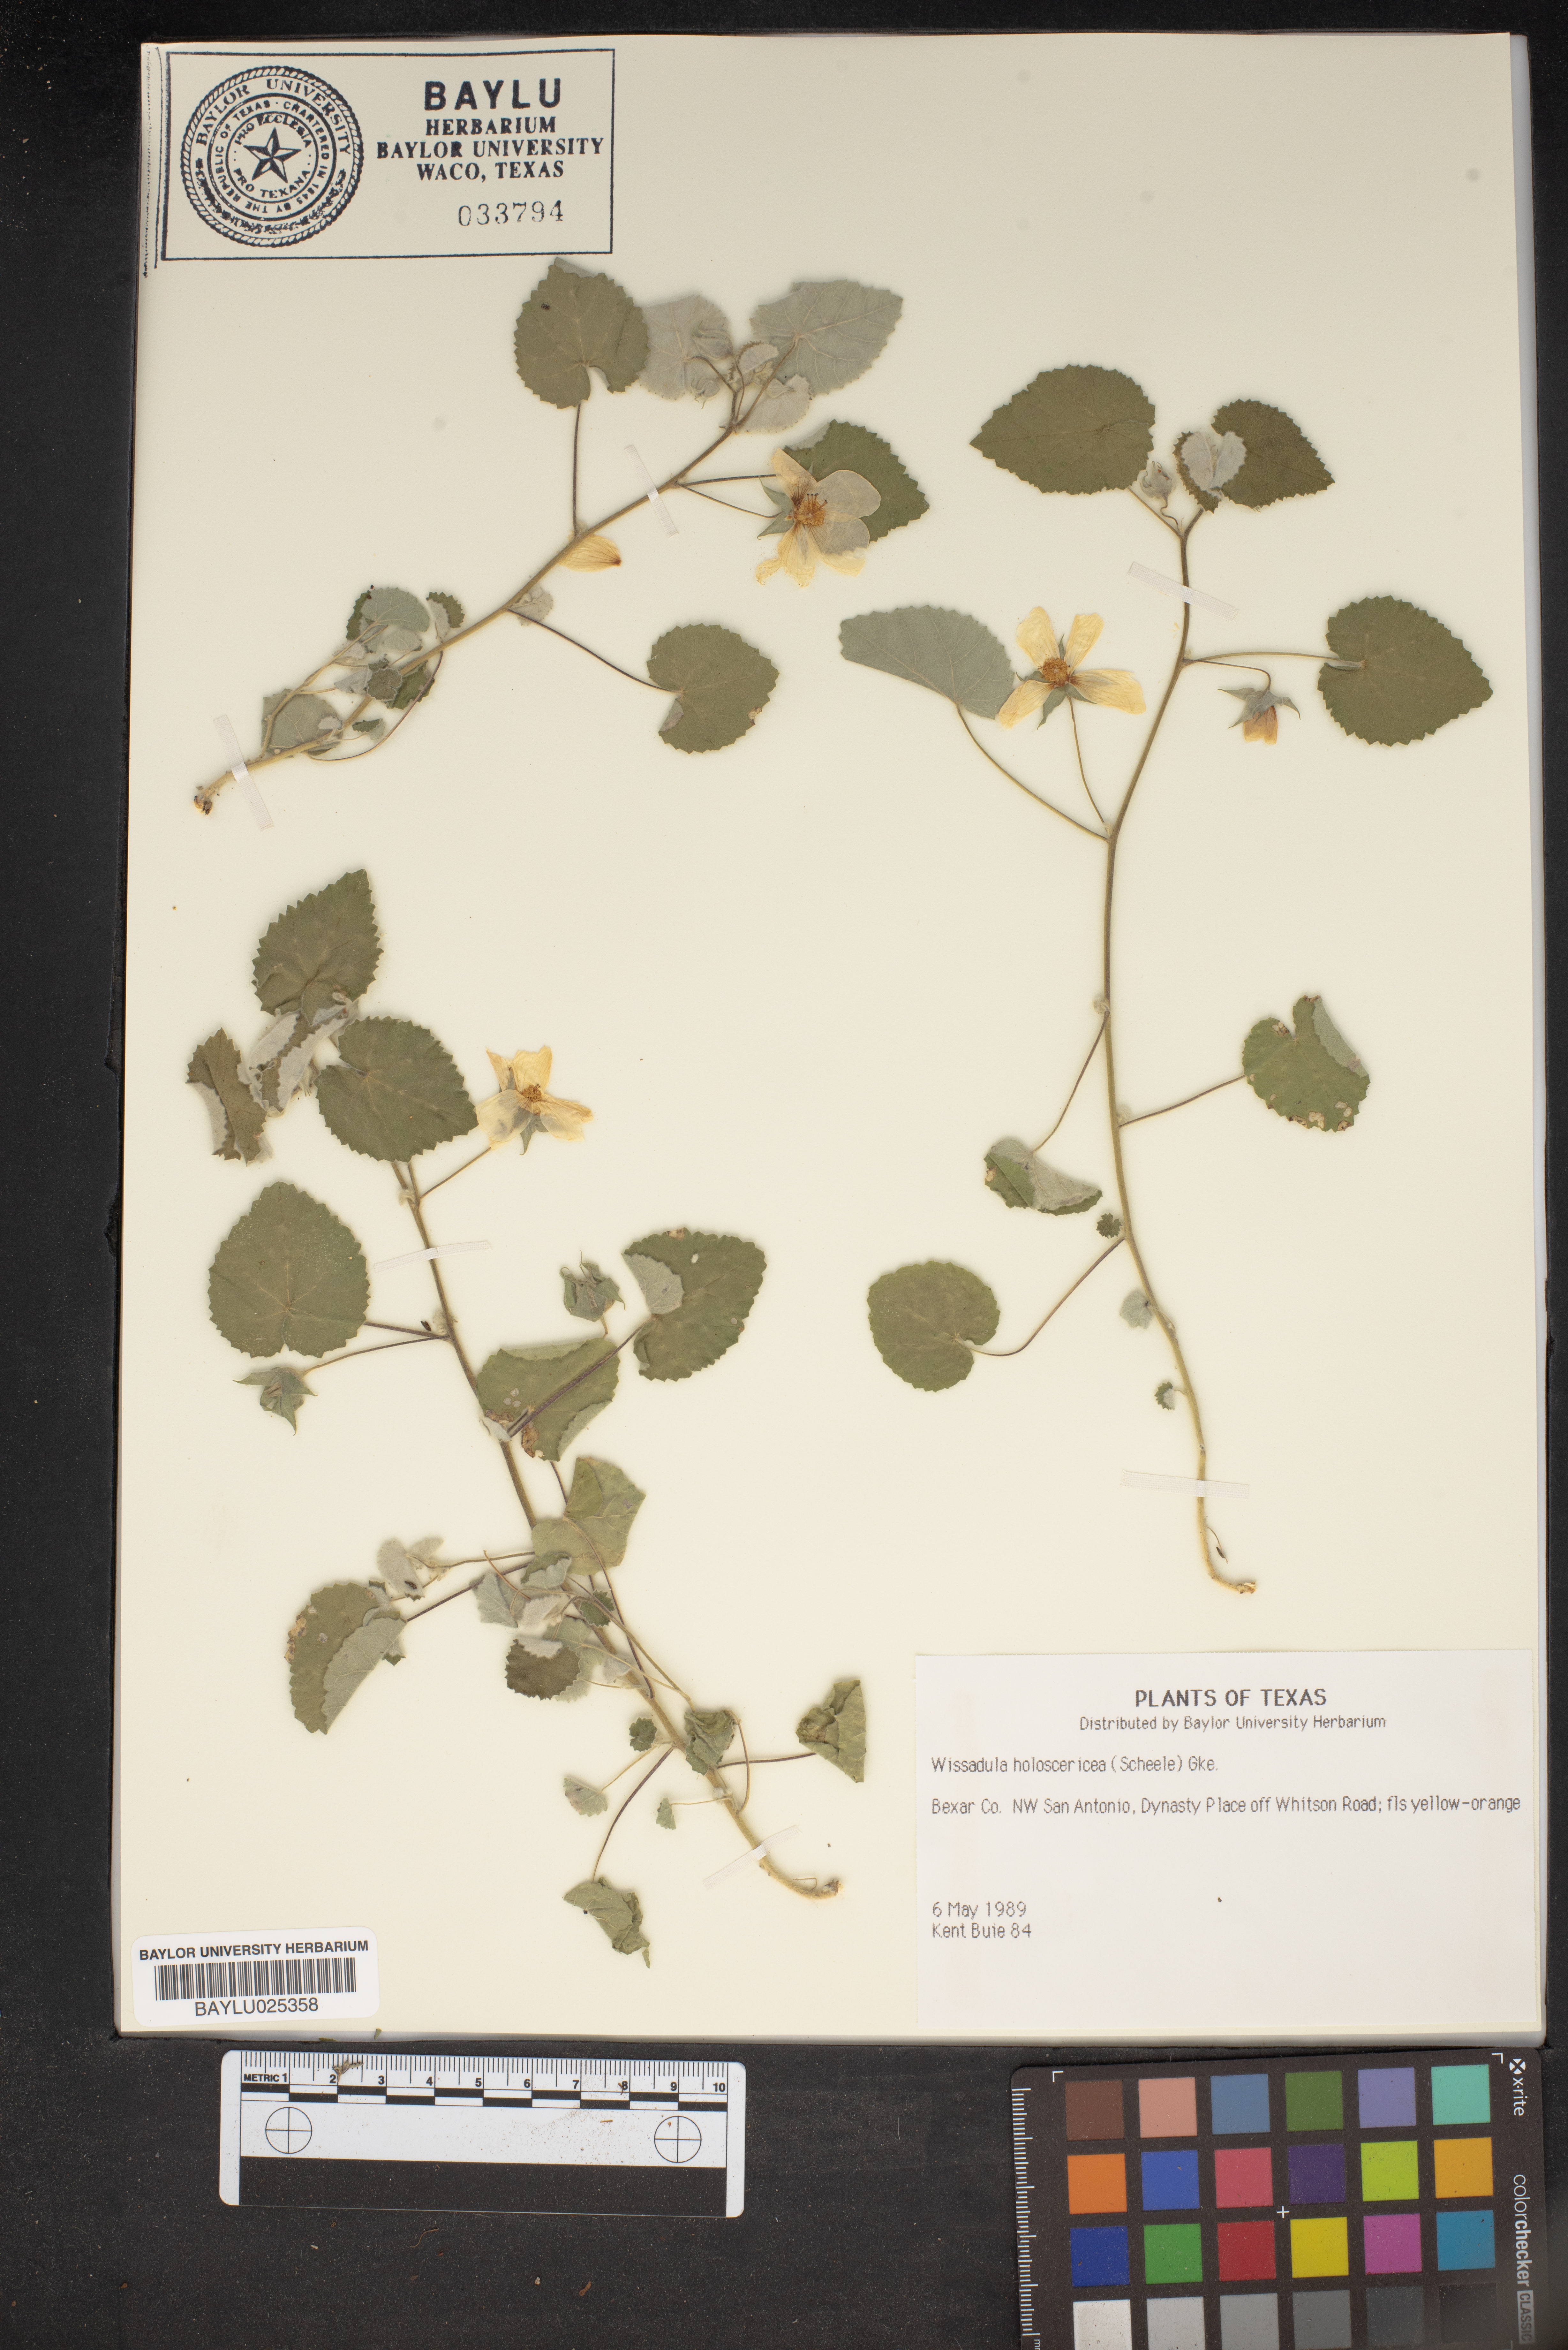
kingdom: Plantae
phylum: Tracheophyta
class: Magnoliopsida
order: Malvales
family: Malvaceae
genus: Allowissadula
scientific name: Allowissadula holosericea
